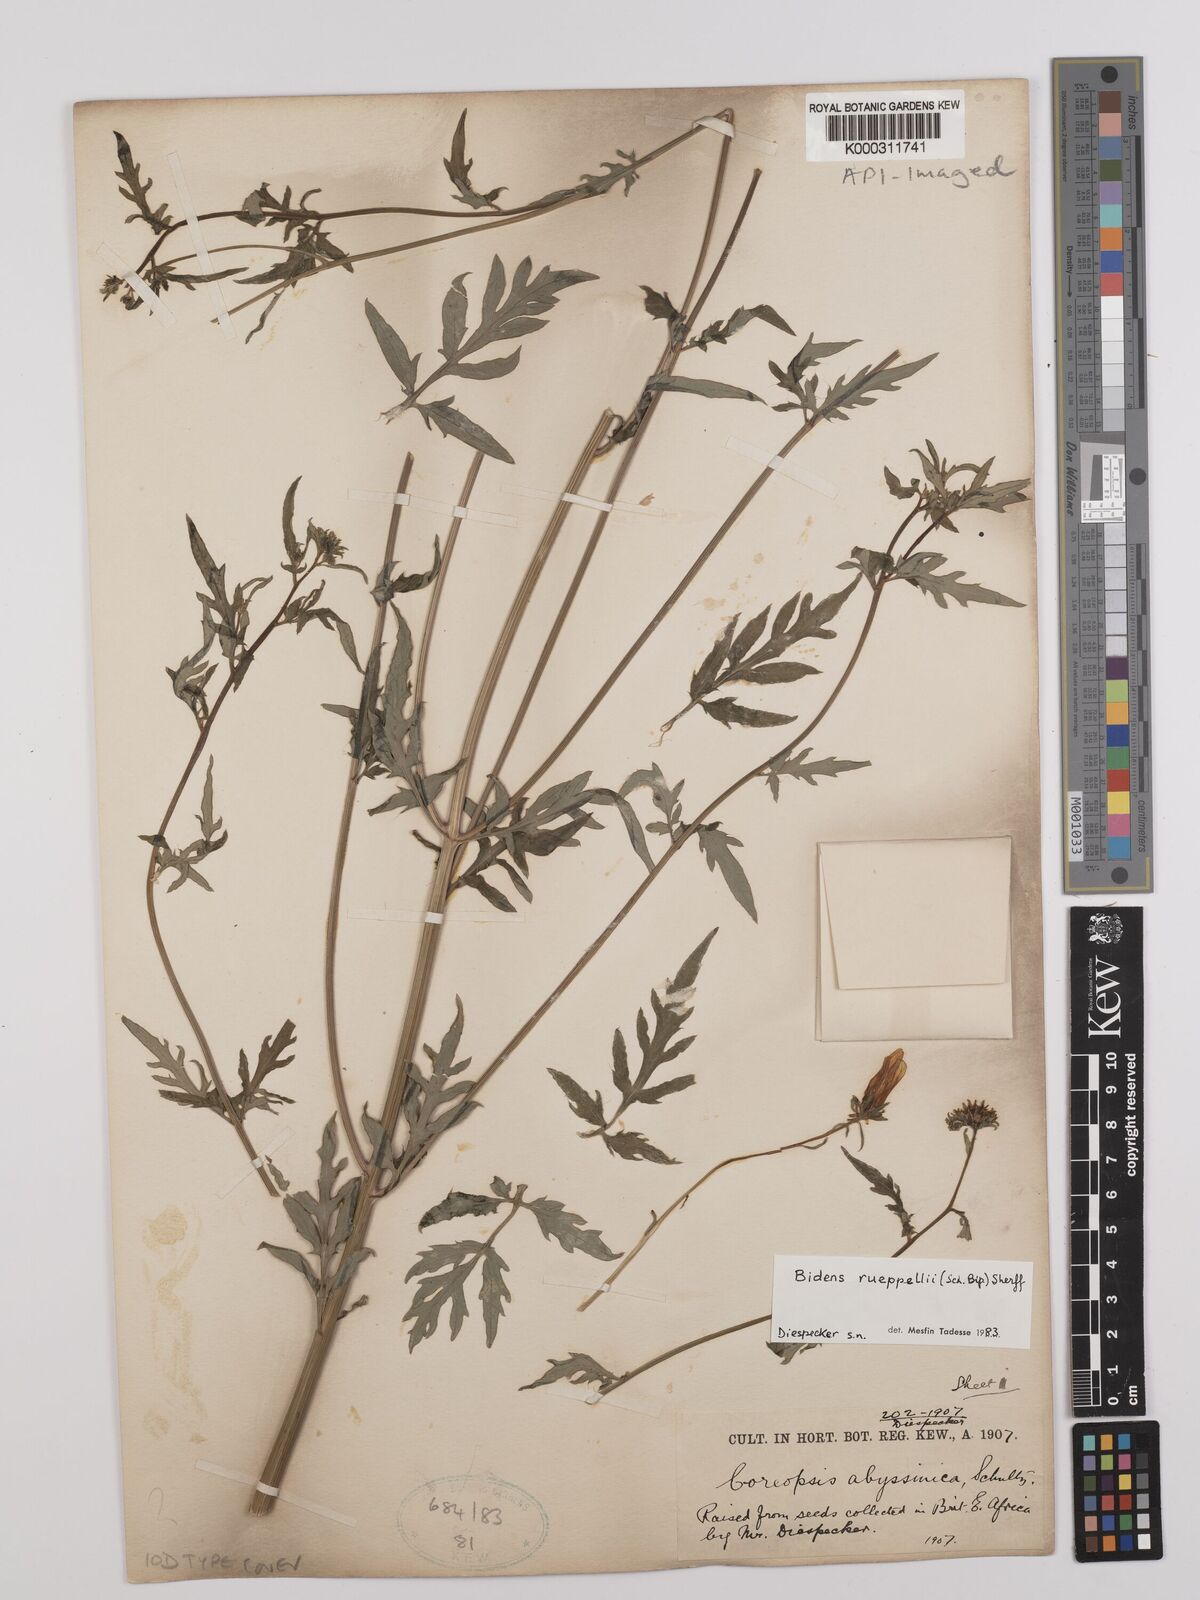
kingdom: Plantae
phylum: Tracheophyta
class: Magnoliopsida
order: Asterales
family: Asteraceae
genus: Bidens
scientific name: Bidens rueppellii
